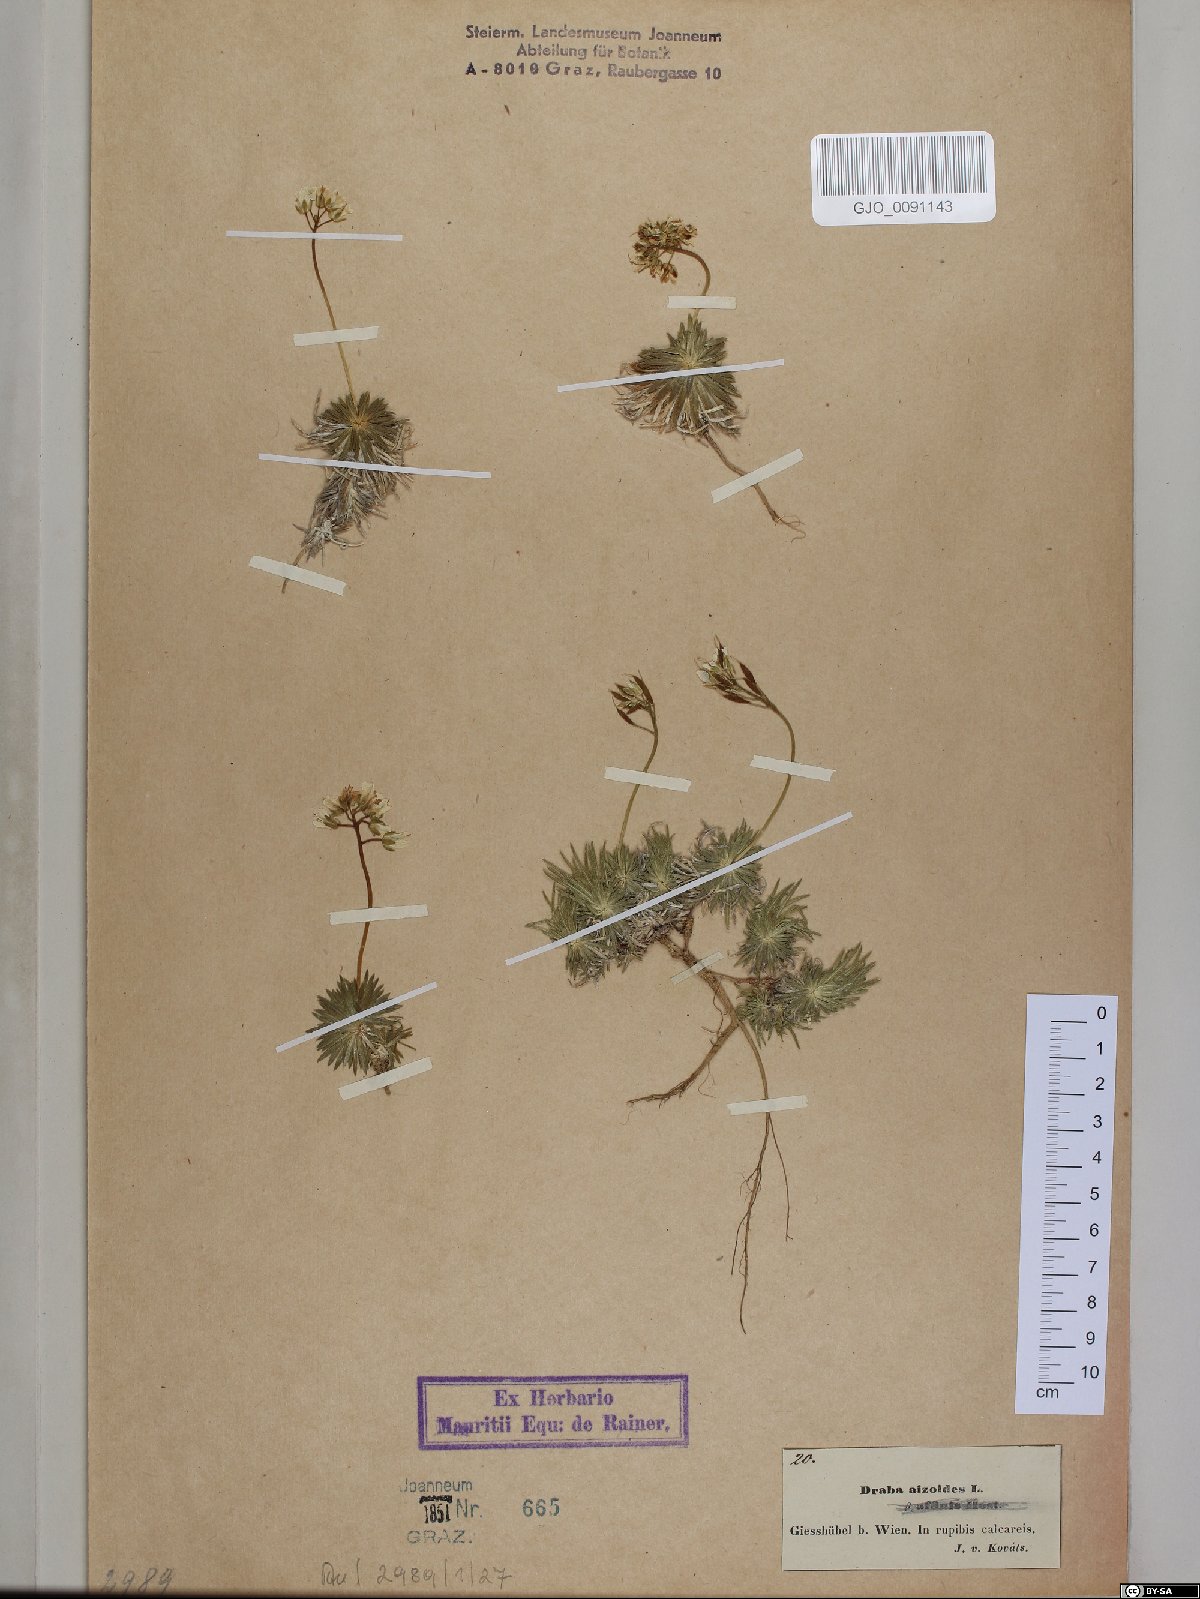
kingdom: Plantae
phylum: Tracheophyta
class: Magnoliopsida
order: Brassicales
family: Brassicaceae
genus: Draba
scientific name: Draba aizoides
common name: Yellow whitlowgrass
